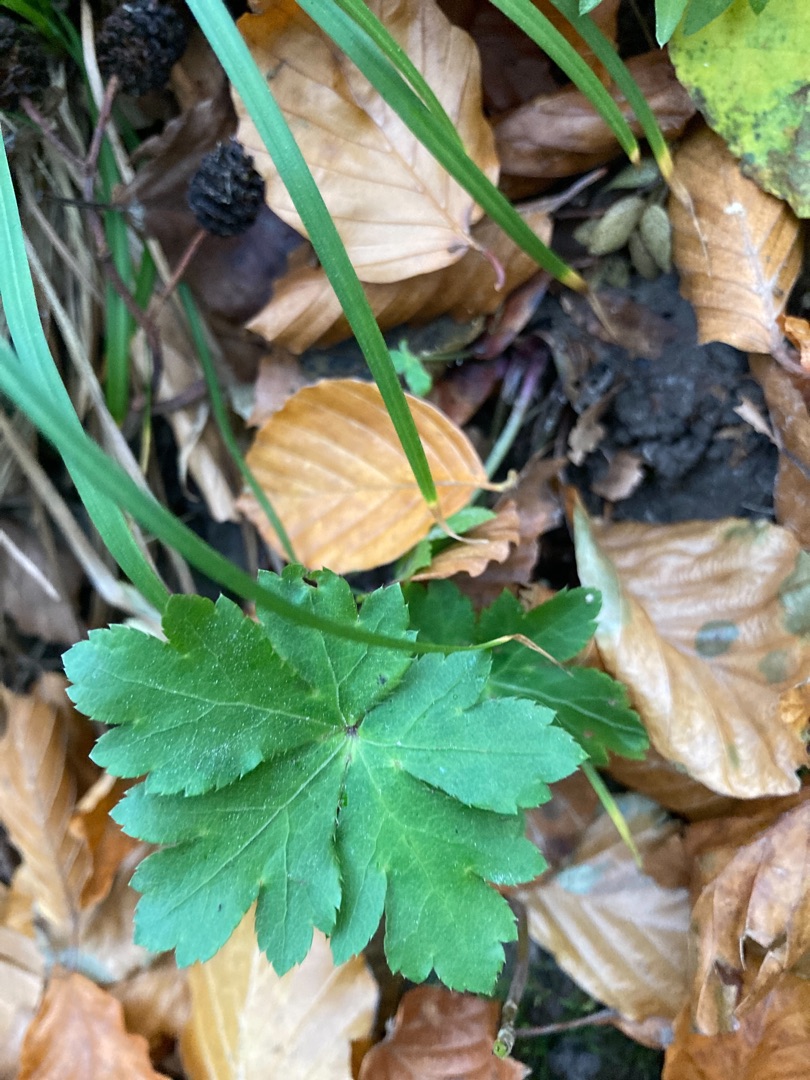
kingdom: Plantae
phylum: Tracheophyta
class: Magnoliopsida
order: Apiales
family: Apiaceae
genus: Sanicula
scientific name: Sanicula europaea
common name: Sanikel
